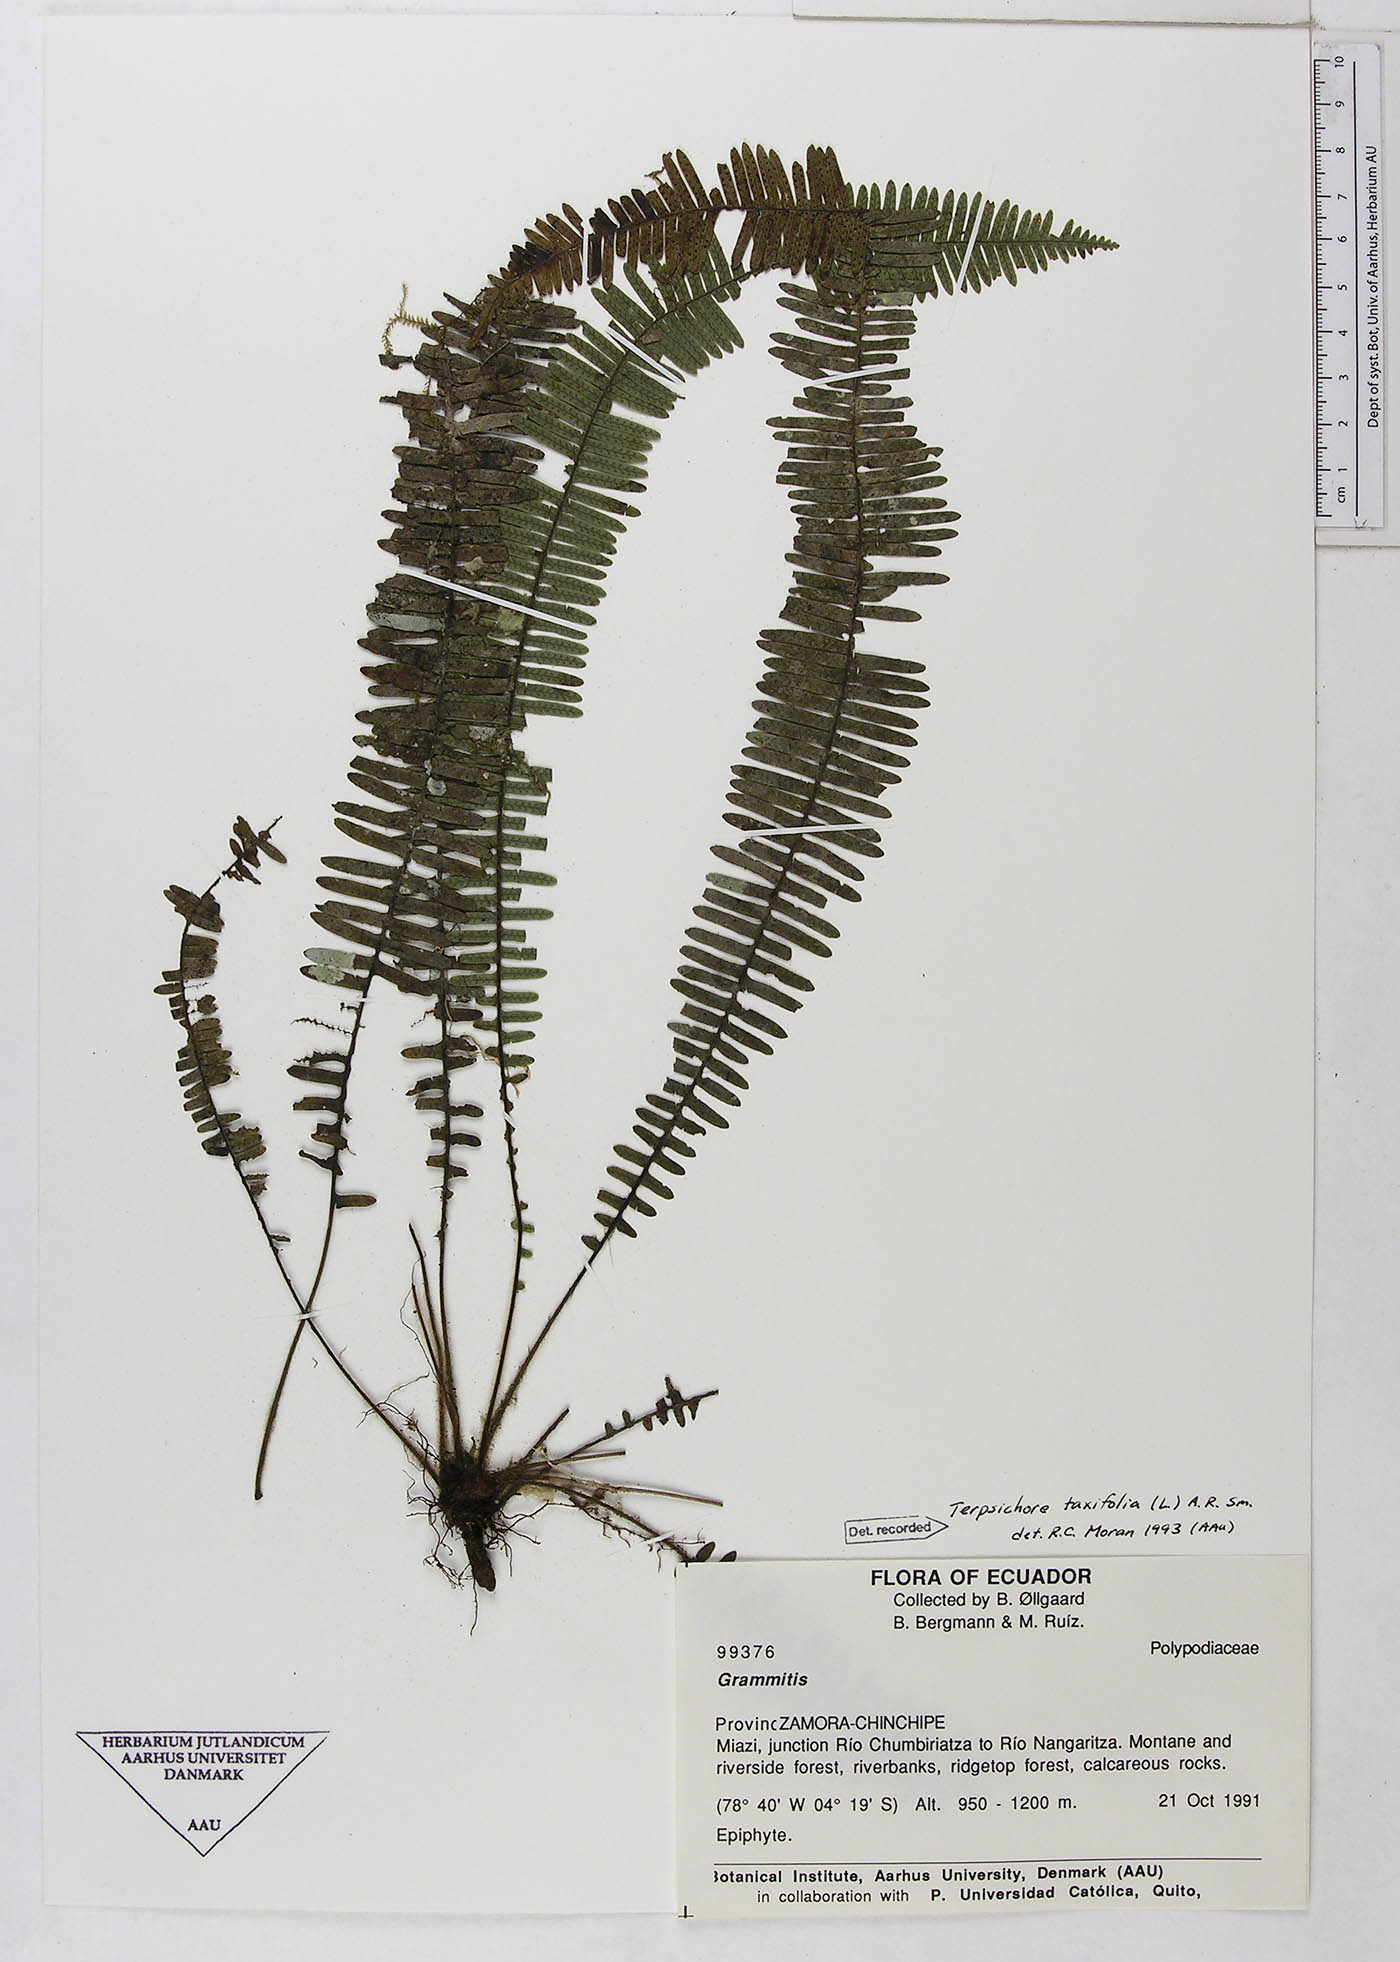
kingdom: Plantae
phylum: Tracheophyta
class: Polypodiopsida
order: Polypodiales
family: Polypodiaceae
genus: Mycopteris
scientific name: Mycopteris taxifolia
